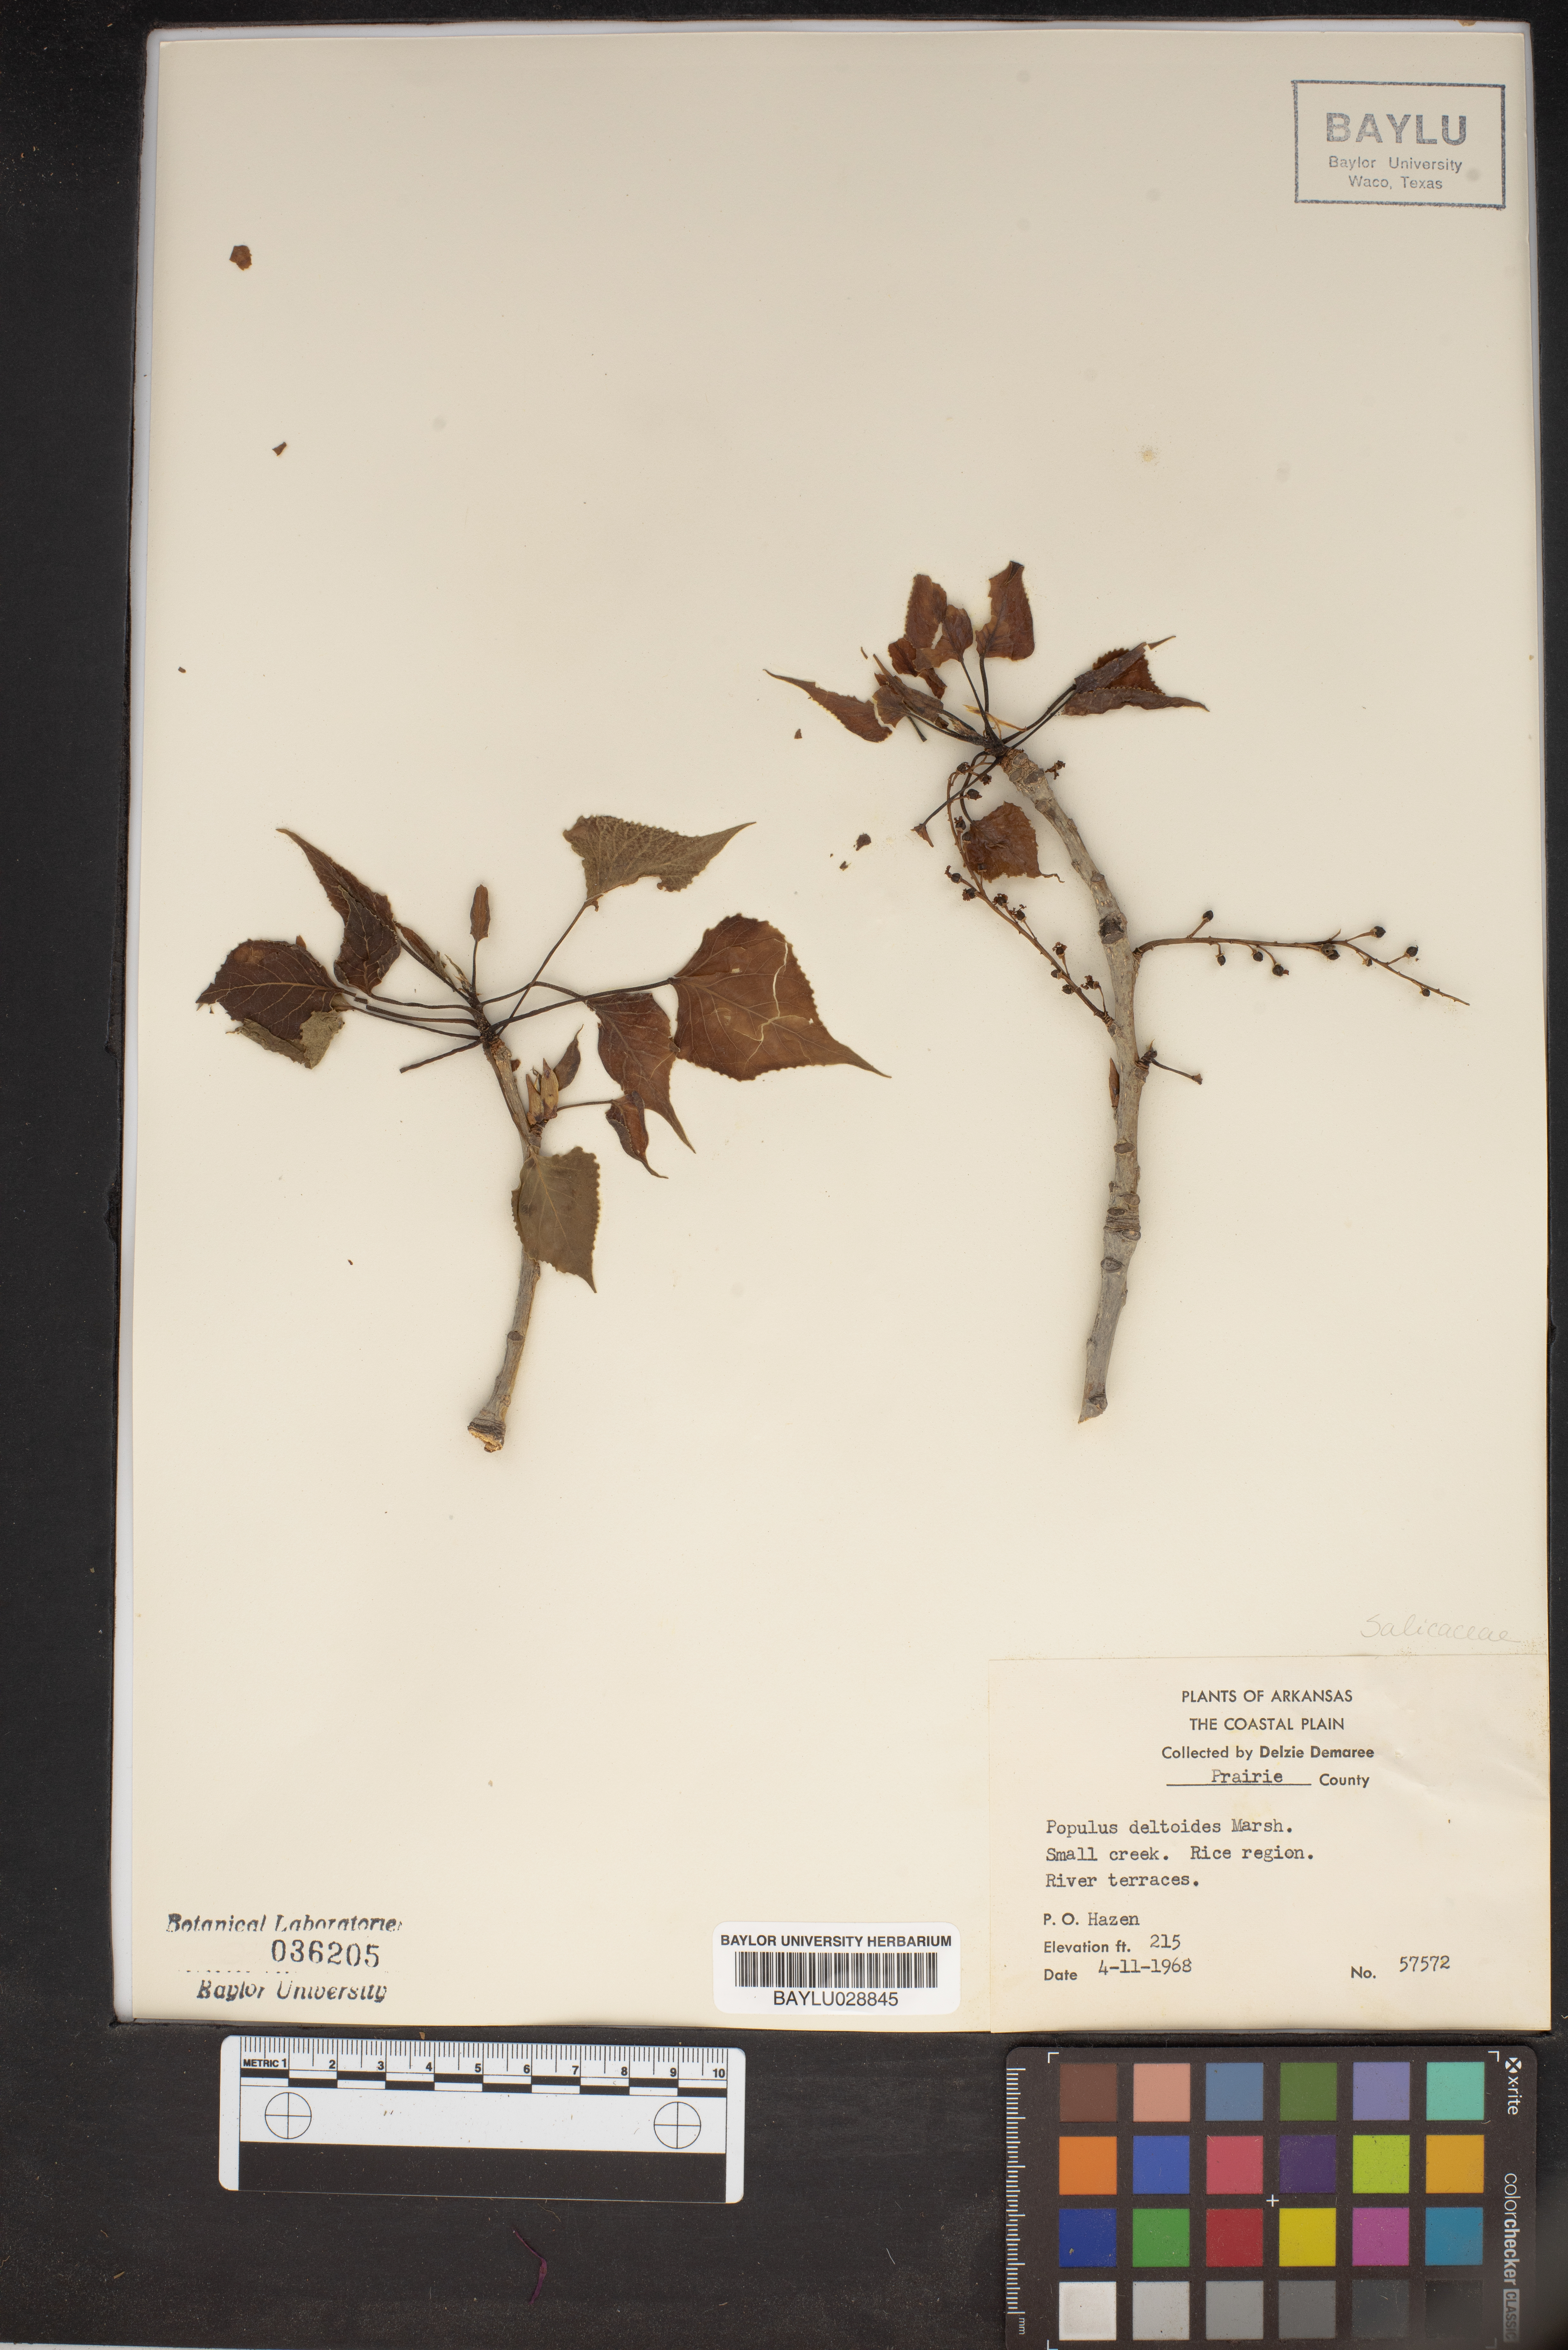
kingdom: Plantae
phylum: Tracheophyta
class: Magnoliopsida
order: Malpighiales
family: Salicaceae
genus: Populus
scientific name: Populus deltoides
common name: Eastern cottonwood
